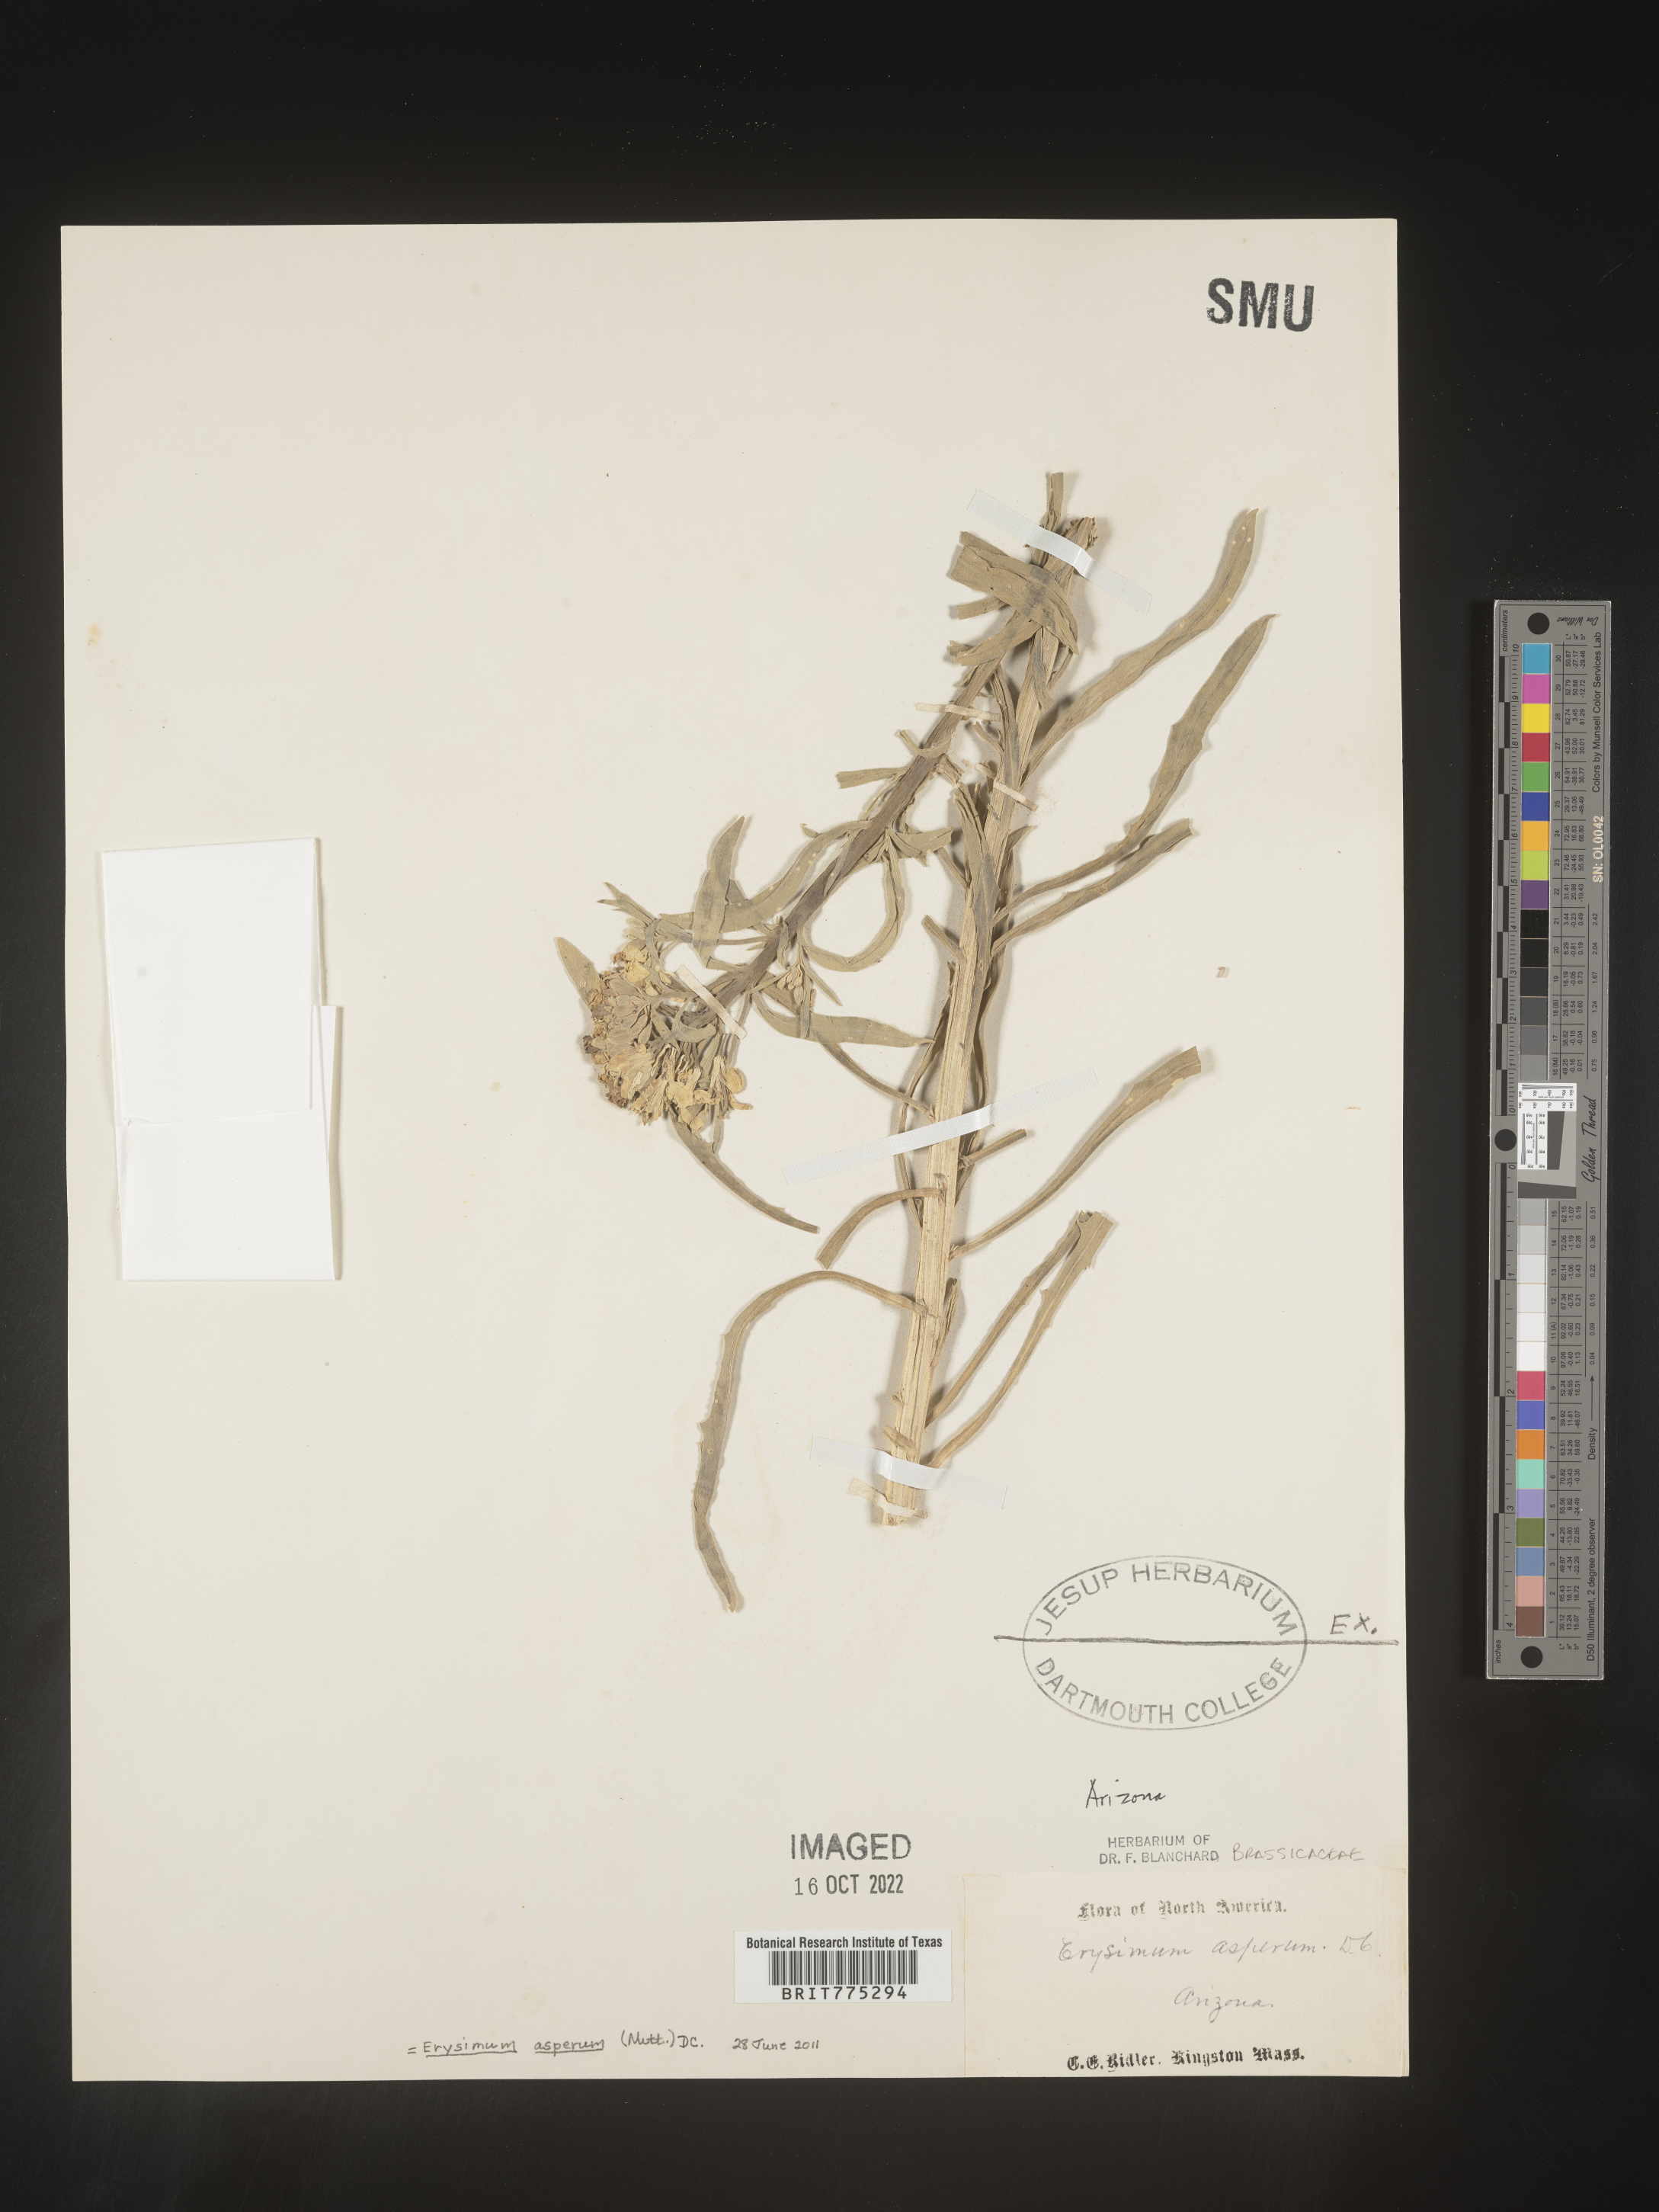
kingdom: Plantae
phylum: Tracheophyta
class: Magnoliopsida
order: Brassicales
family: Brassicaceae
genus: Erysimum
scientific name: Erysimum asperum
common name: Western wallflower
